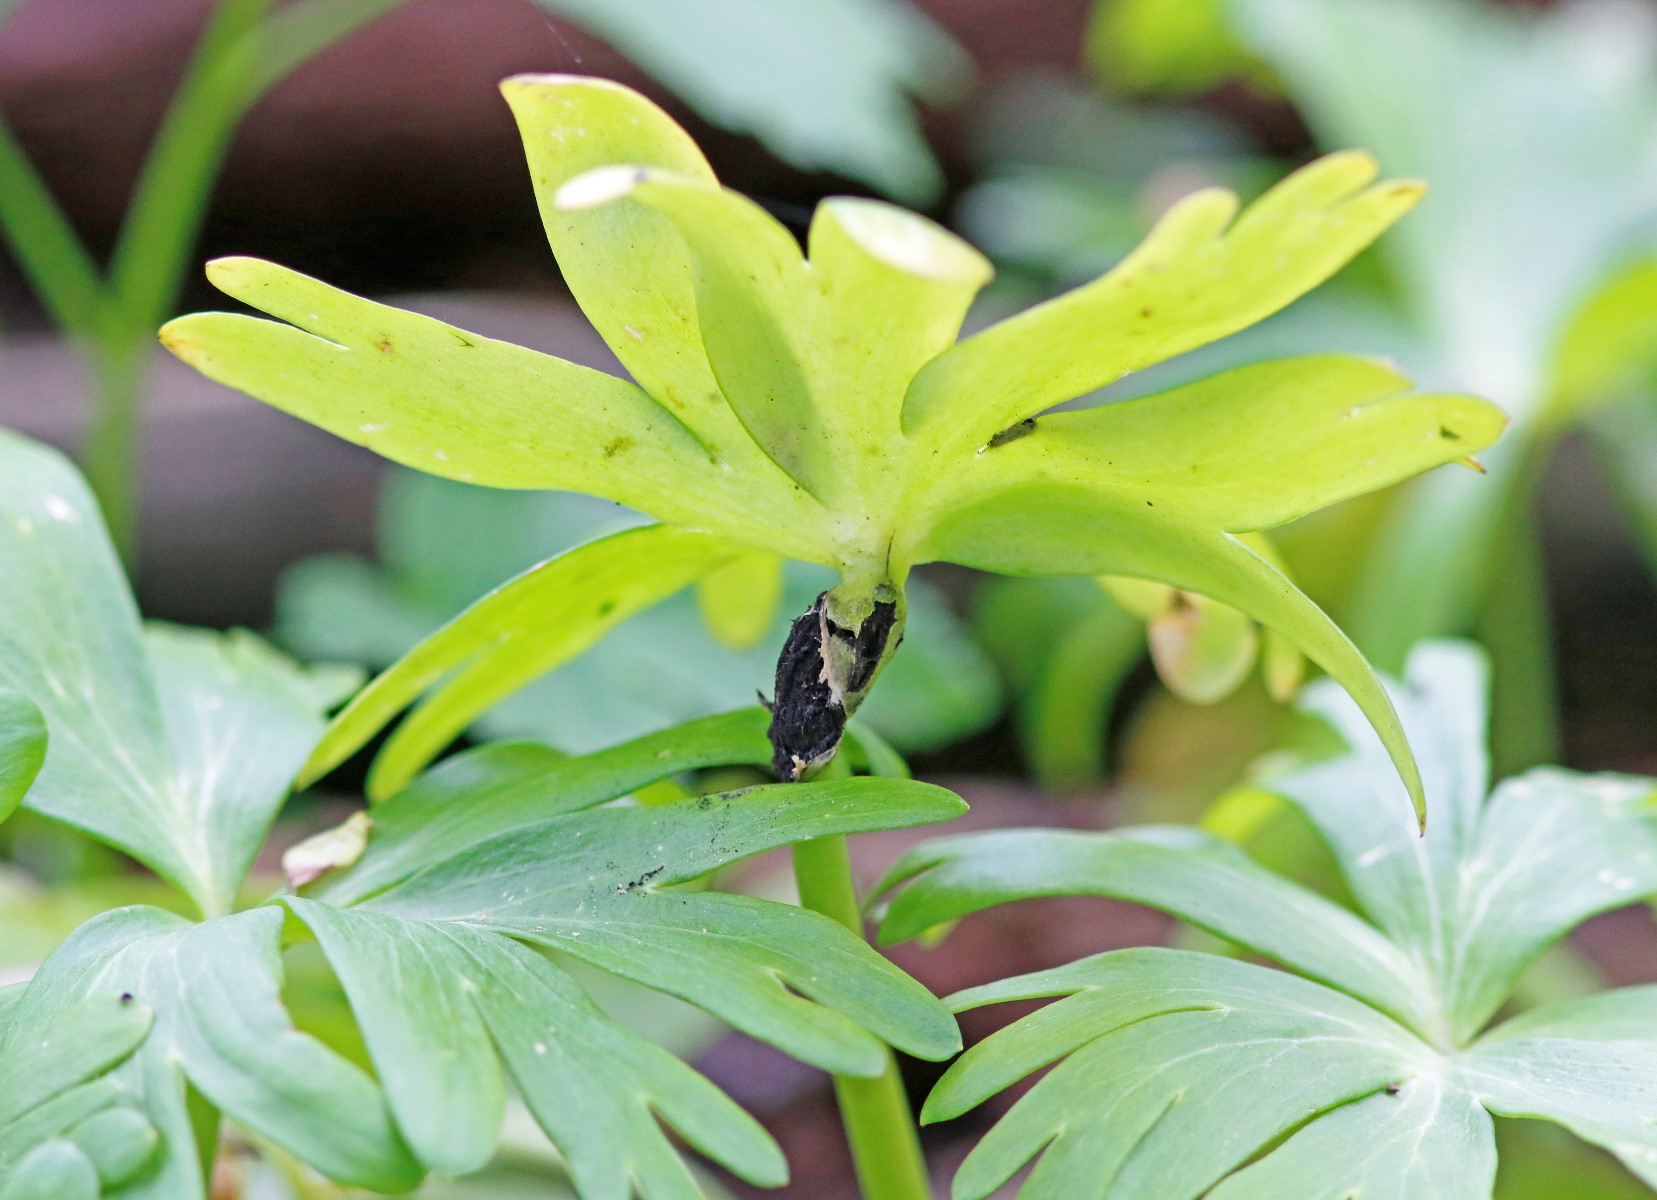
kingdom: Fungi
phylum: Basidiomycota
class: Ustilaginomycetes
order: Urocystidales
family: Urocystidaceae
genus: Urocystis
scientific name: Urocystis eranthidis
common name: erantis-brand
